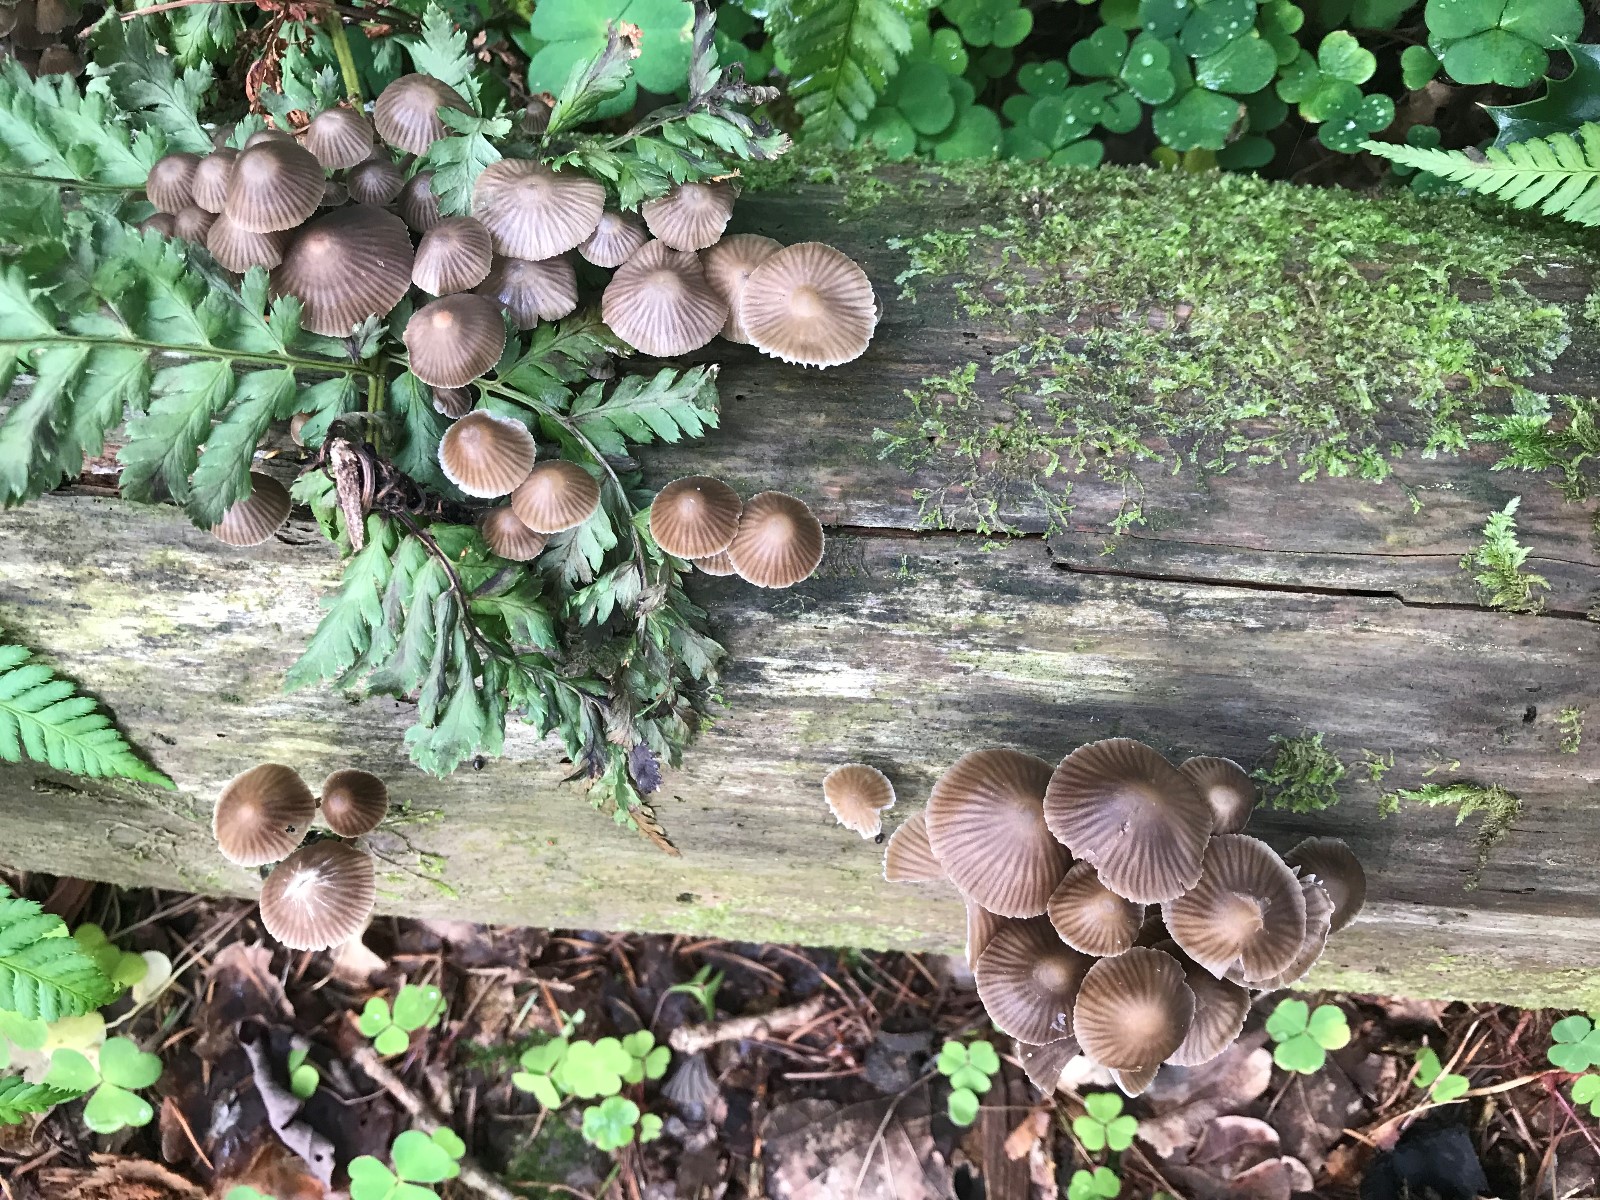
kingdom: Fungi
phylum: Basidiomycota
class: Agaricomycetes
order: Agaricales
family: Mycenaceae
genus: Mycena
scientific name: Mycena stipata
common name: stinkende huesvamp
